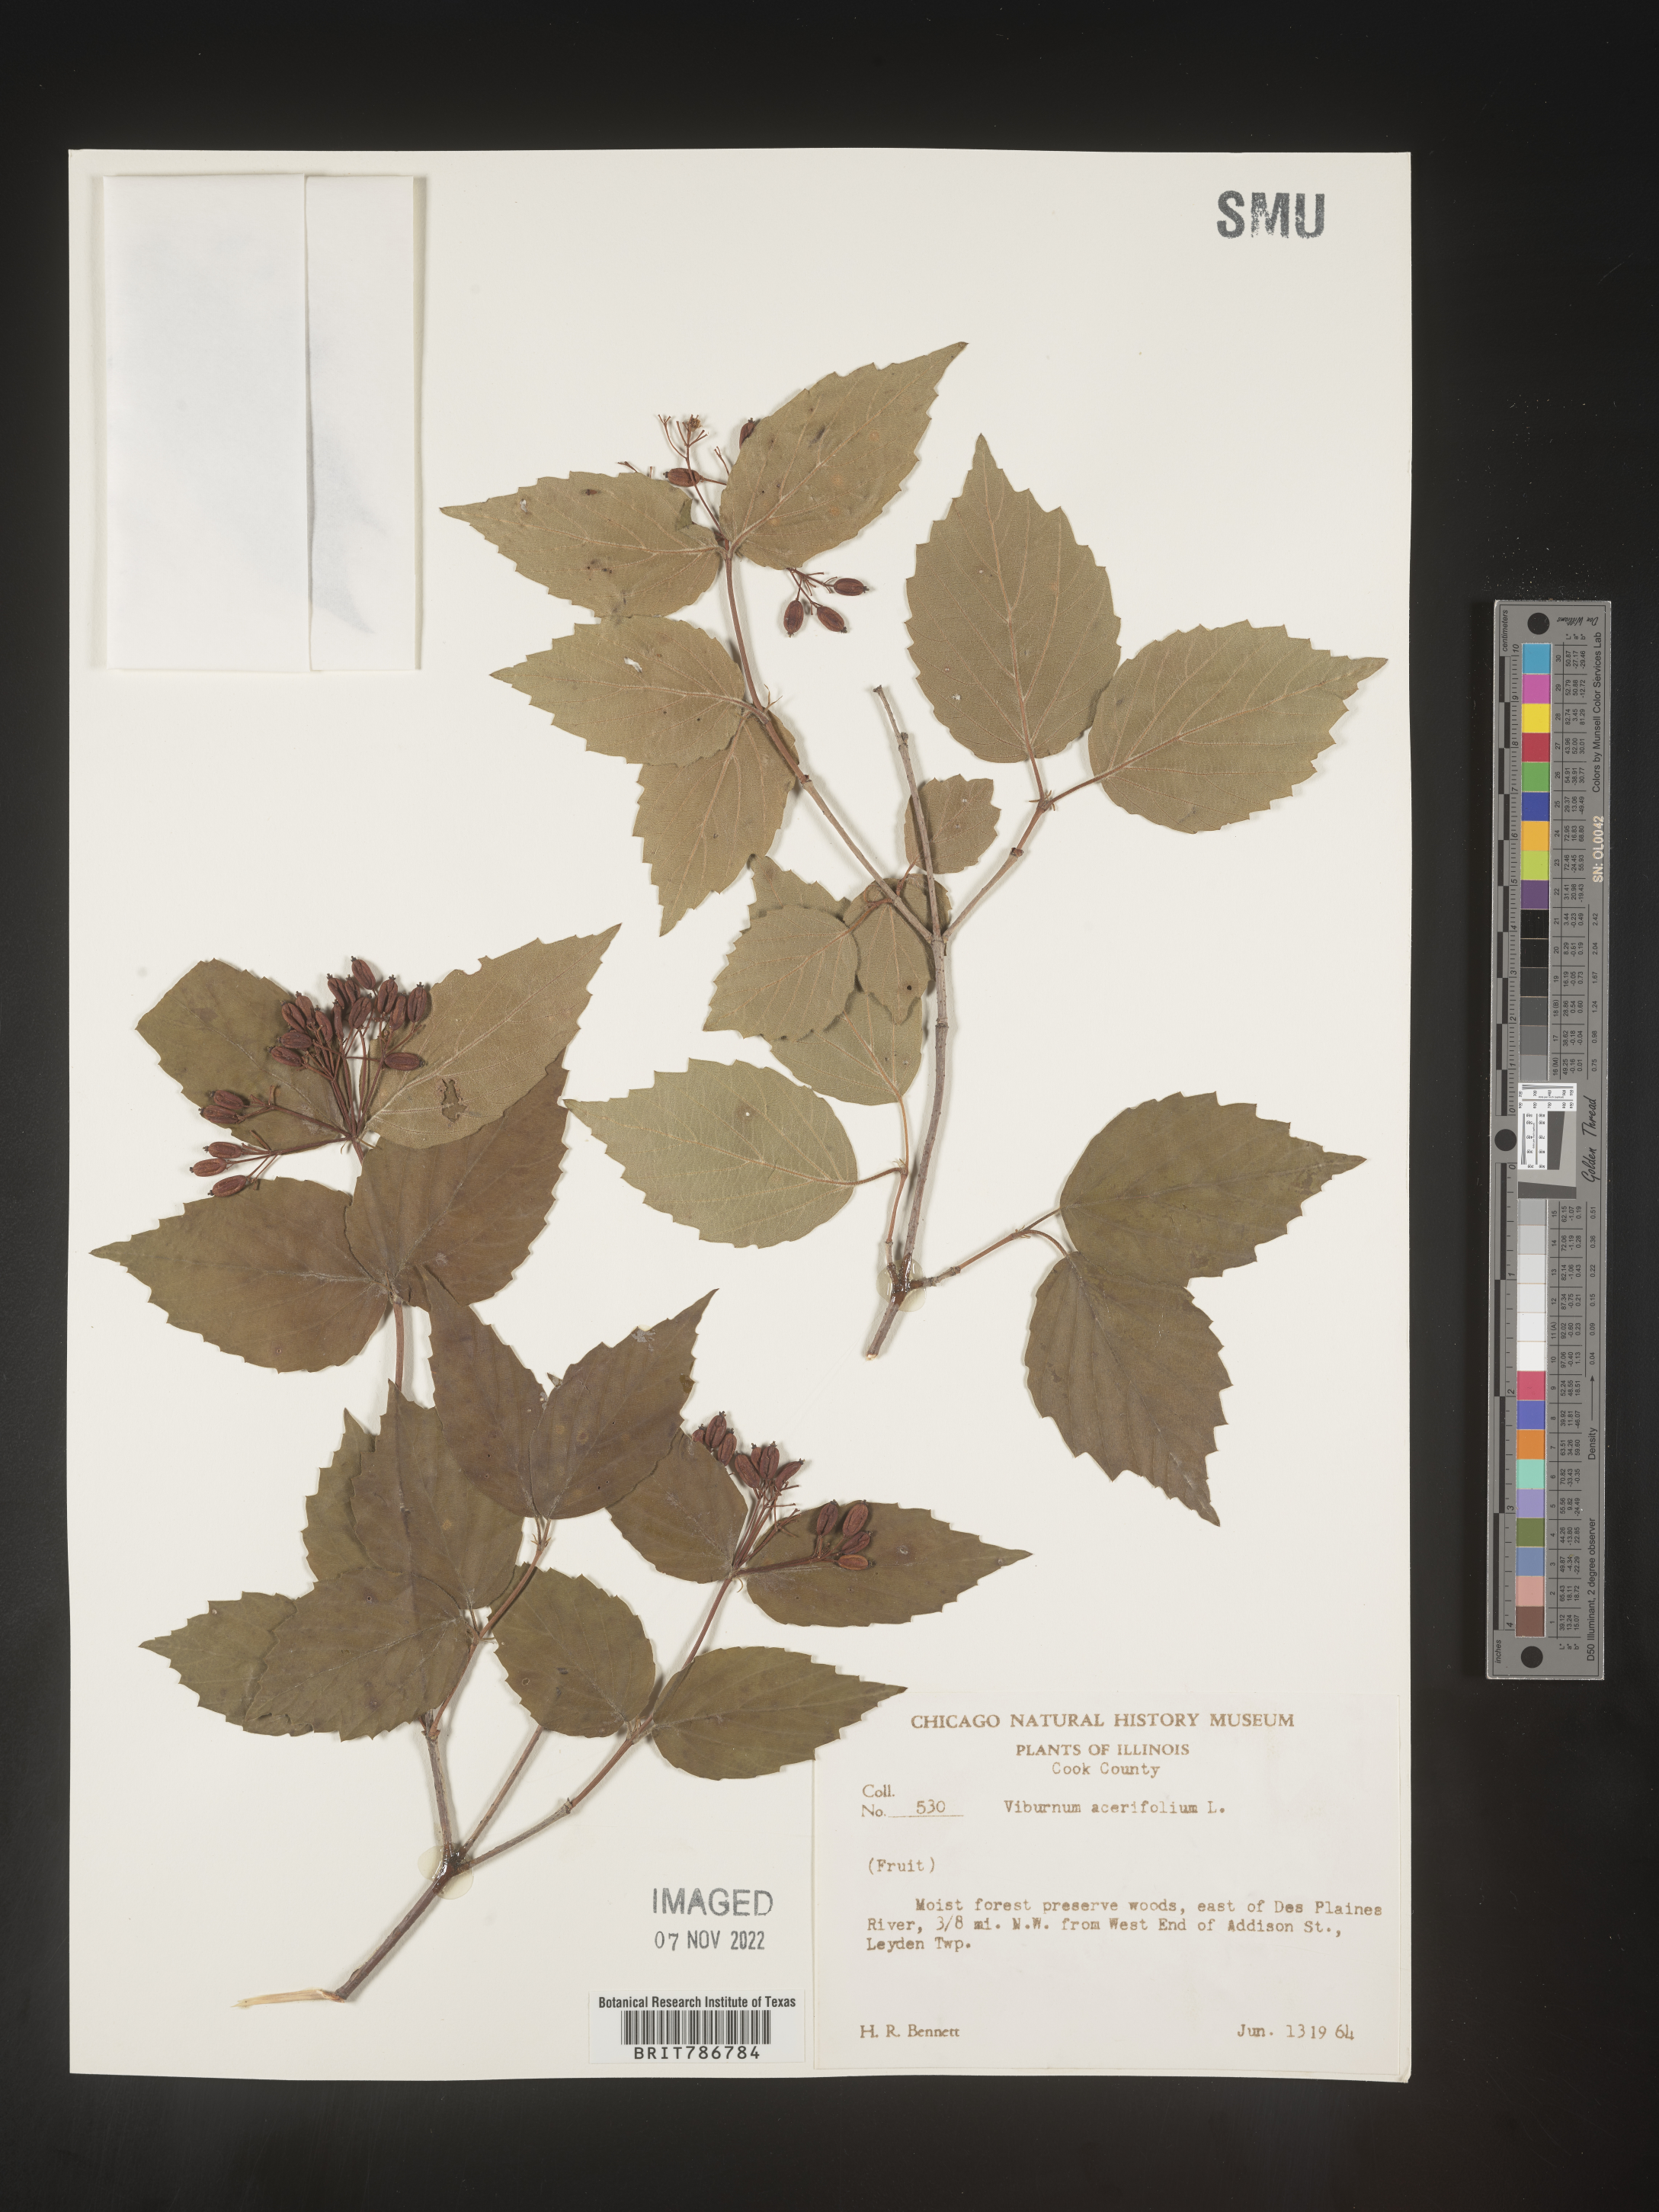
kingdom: Plantae
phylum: Tracheophyta
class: Magnoliopsida
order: Dipsacales
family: Viburnaceae
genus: Viburnum
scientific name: Viburnum acerifolium
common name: Dockmackie
